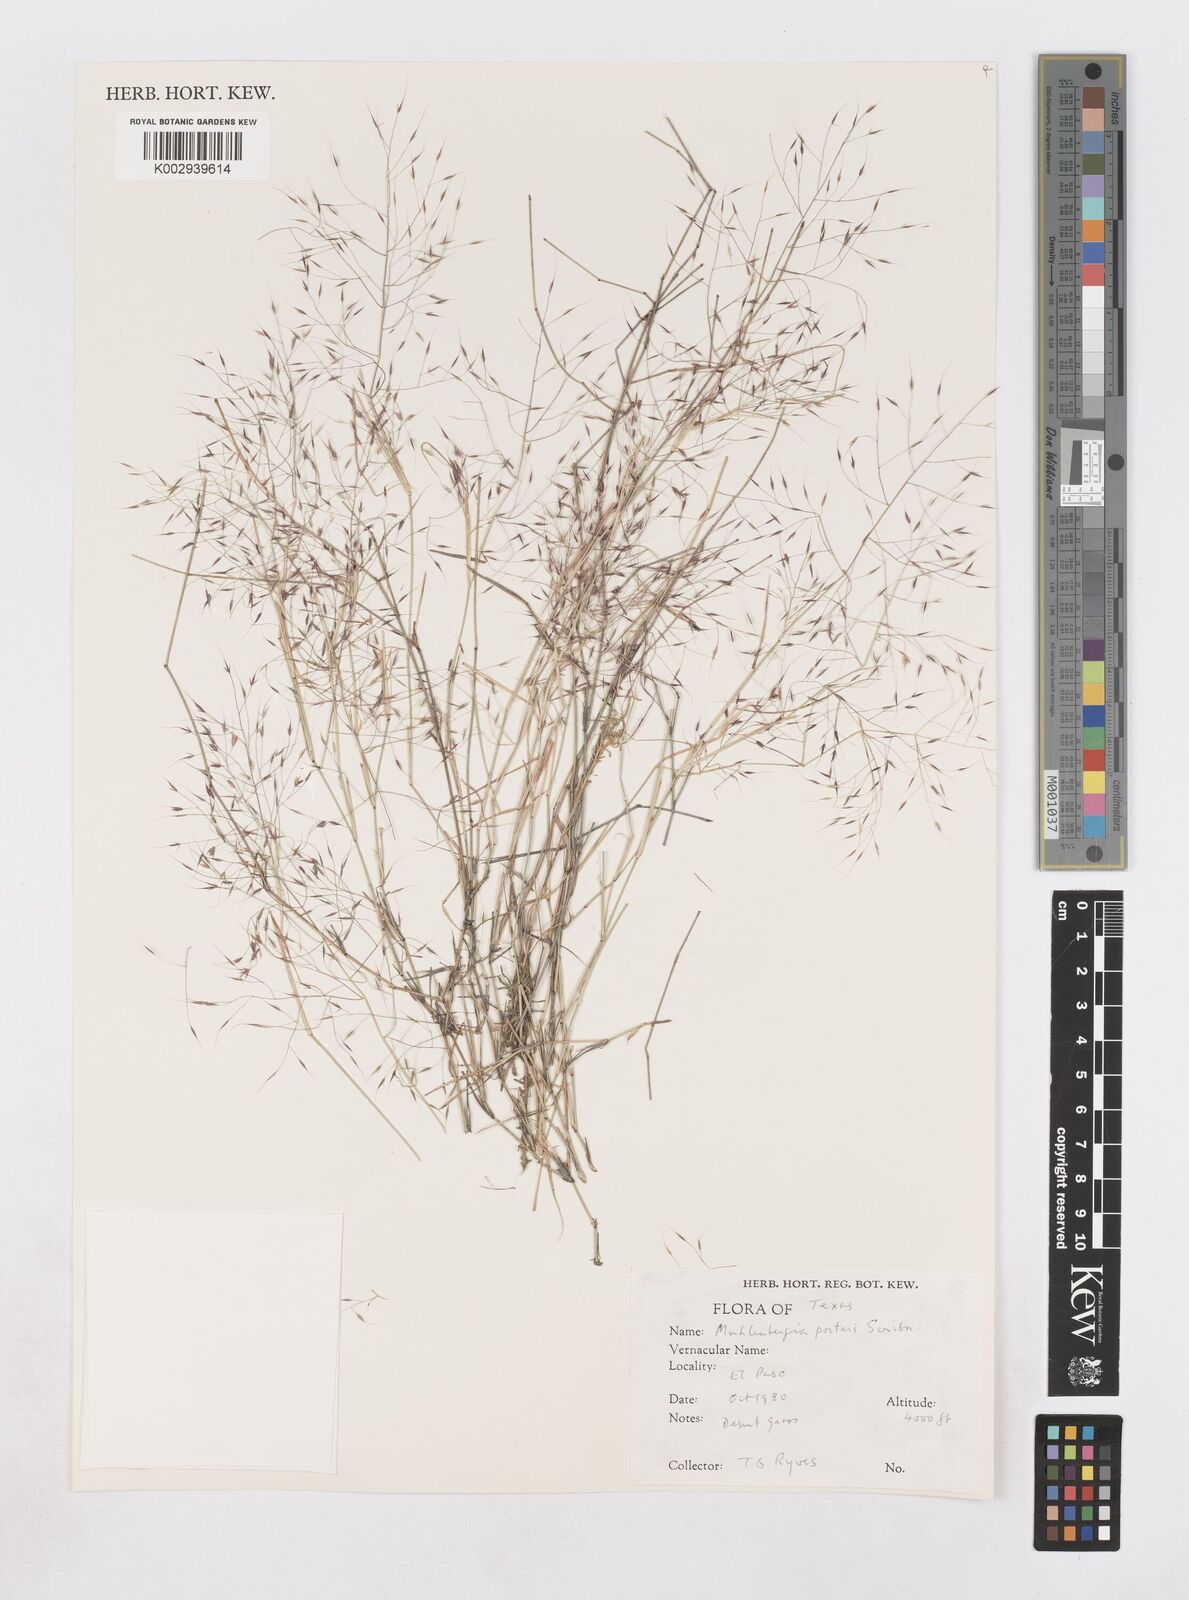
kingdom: Plantae
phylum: Tracheophyta
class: Liliopsida
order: Poales
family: Poaceae
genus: Muhlenbergia
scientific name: Muhlenbergia porteri
